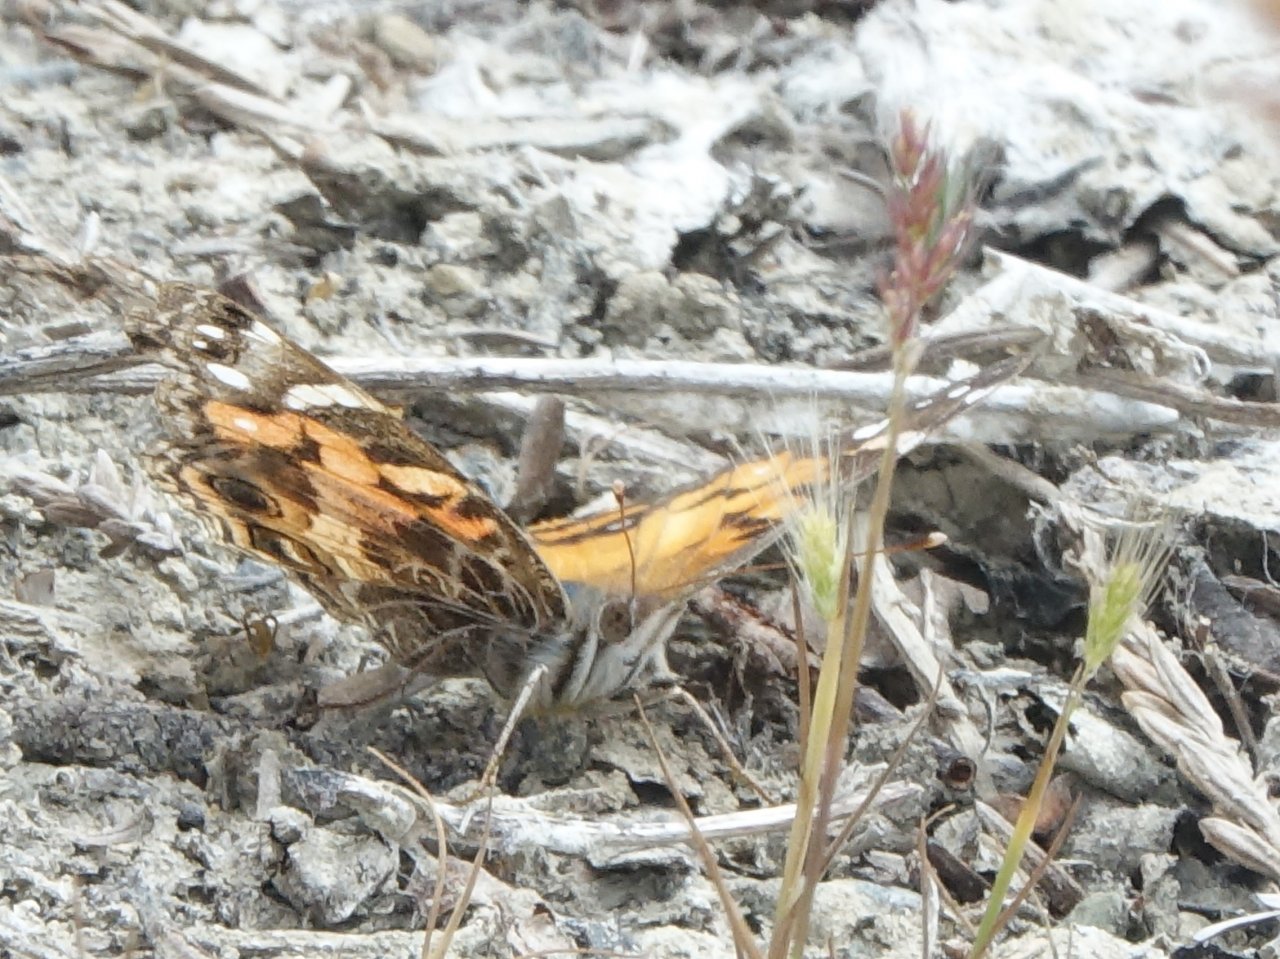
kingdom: Animalia
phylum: Arthropoda
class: Insecta
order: Lepidoptera
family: Nymphalidae
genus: Vanessa
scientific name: Vanessa virginiensis
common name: American Lady
